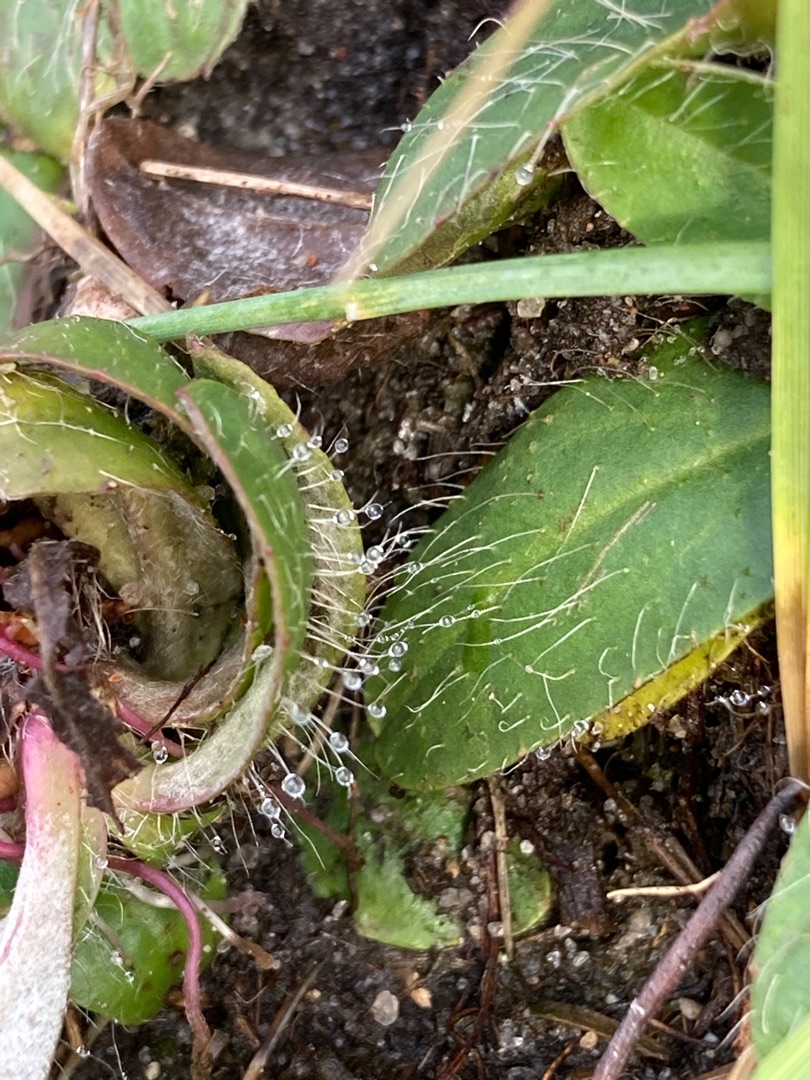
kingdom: Plantae
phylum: Tracheophyta
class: Magnoliopsida
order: Asterales
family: Asteraceae
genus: Pilosella
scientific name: Pilosella officinarum
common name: Håret høgeurt
